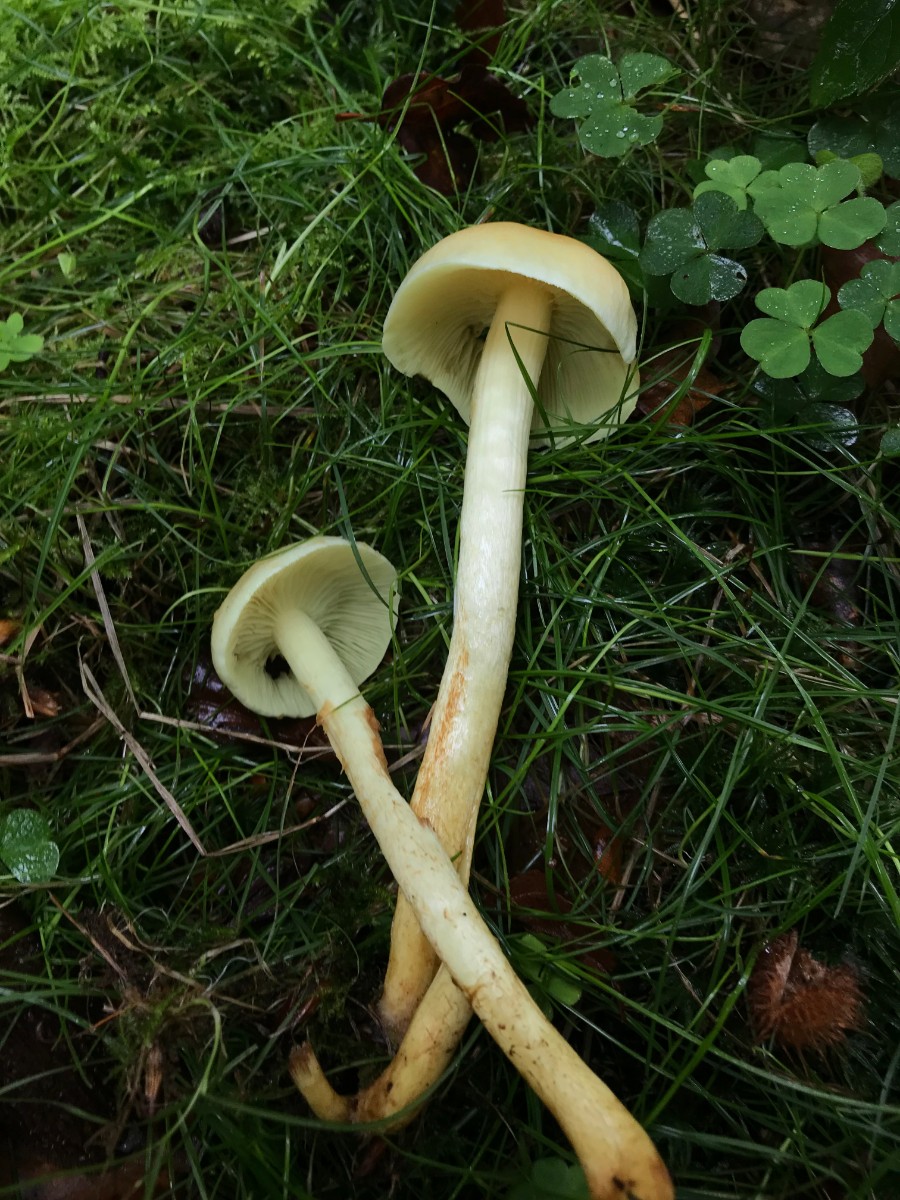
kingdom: Fungi
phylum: Basidiomycota
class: Agaricomycetes
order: Agaricales
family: Strophariaceae
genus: Hypholoma
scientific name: Hypholoma fasciculare
